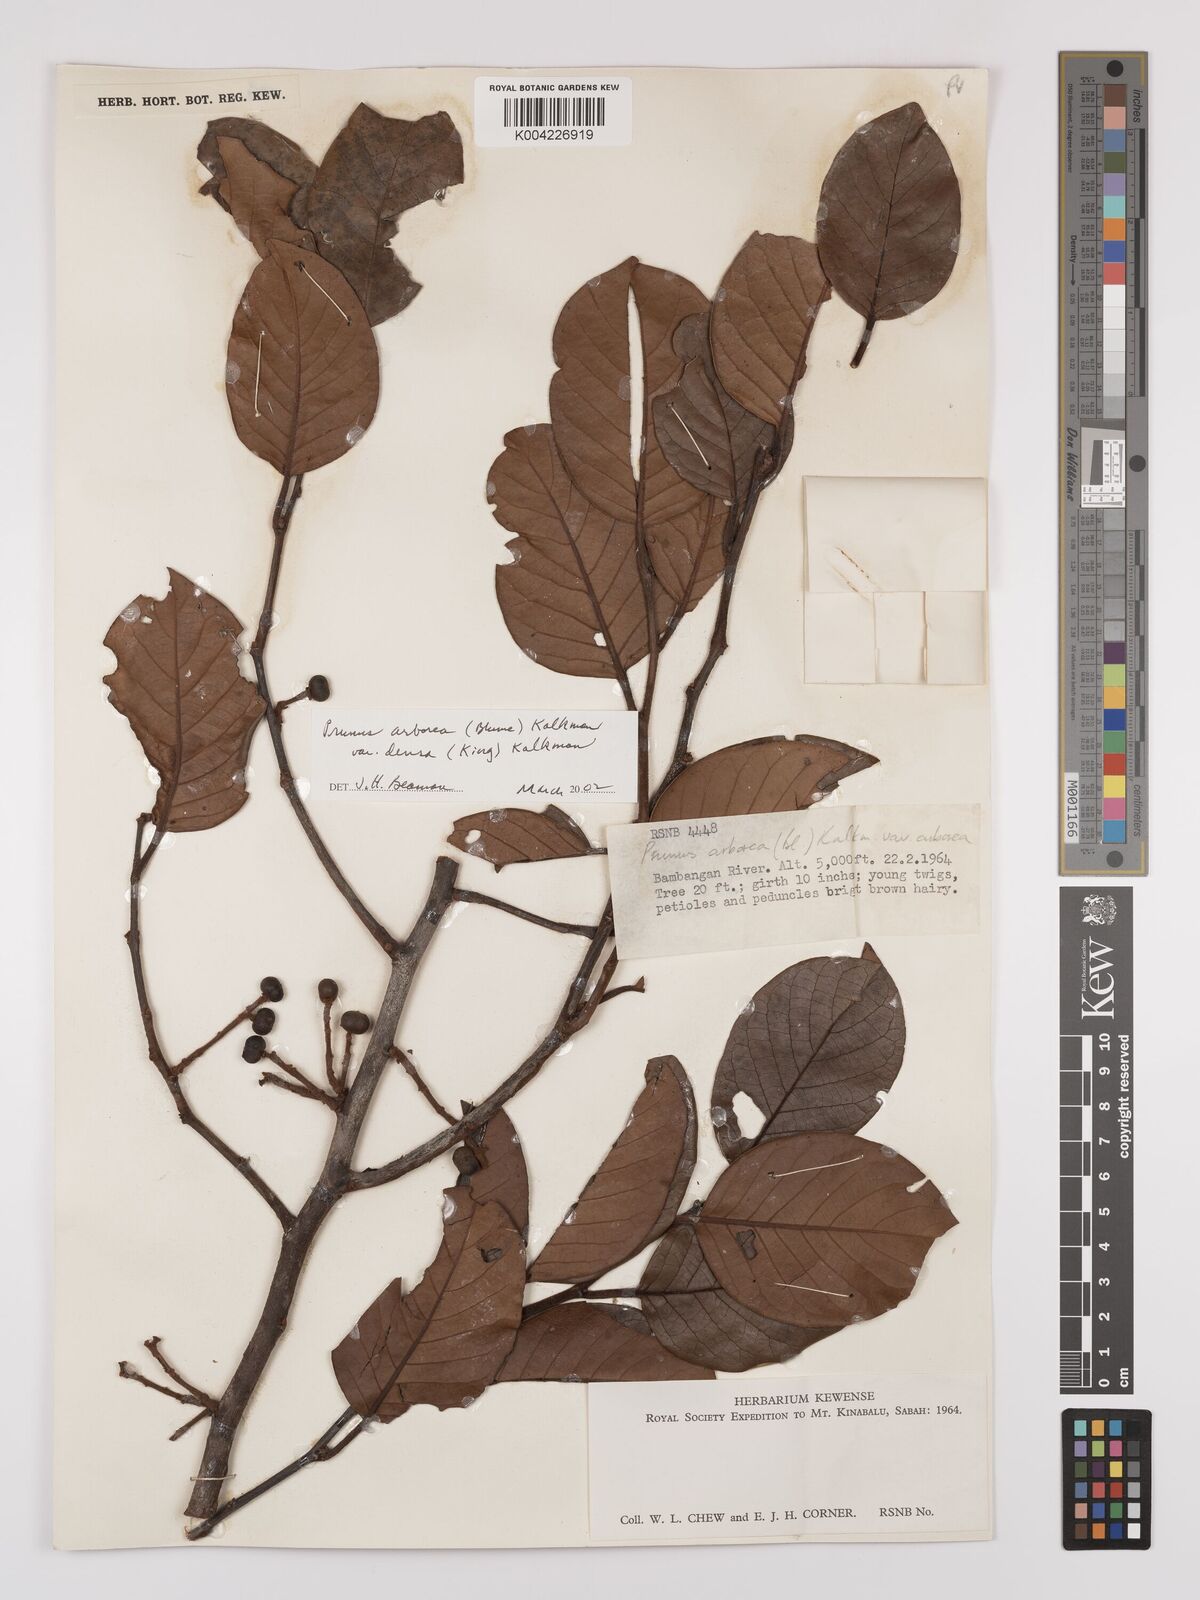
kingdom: Plantae
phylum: Tracheophyta
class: Magnoliopsida
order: Rosales
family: Rosaceae
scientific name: Rosaceae
